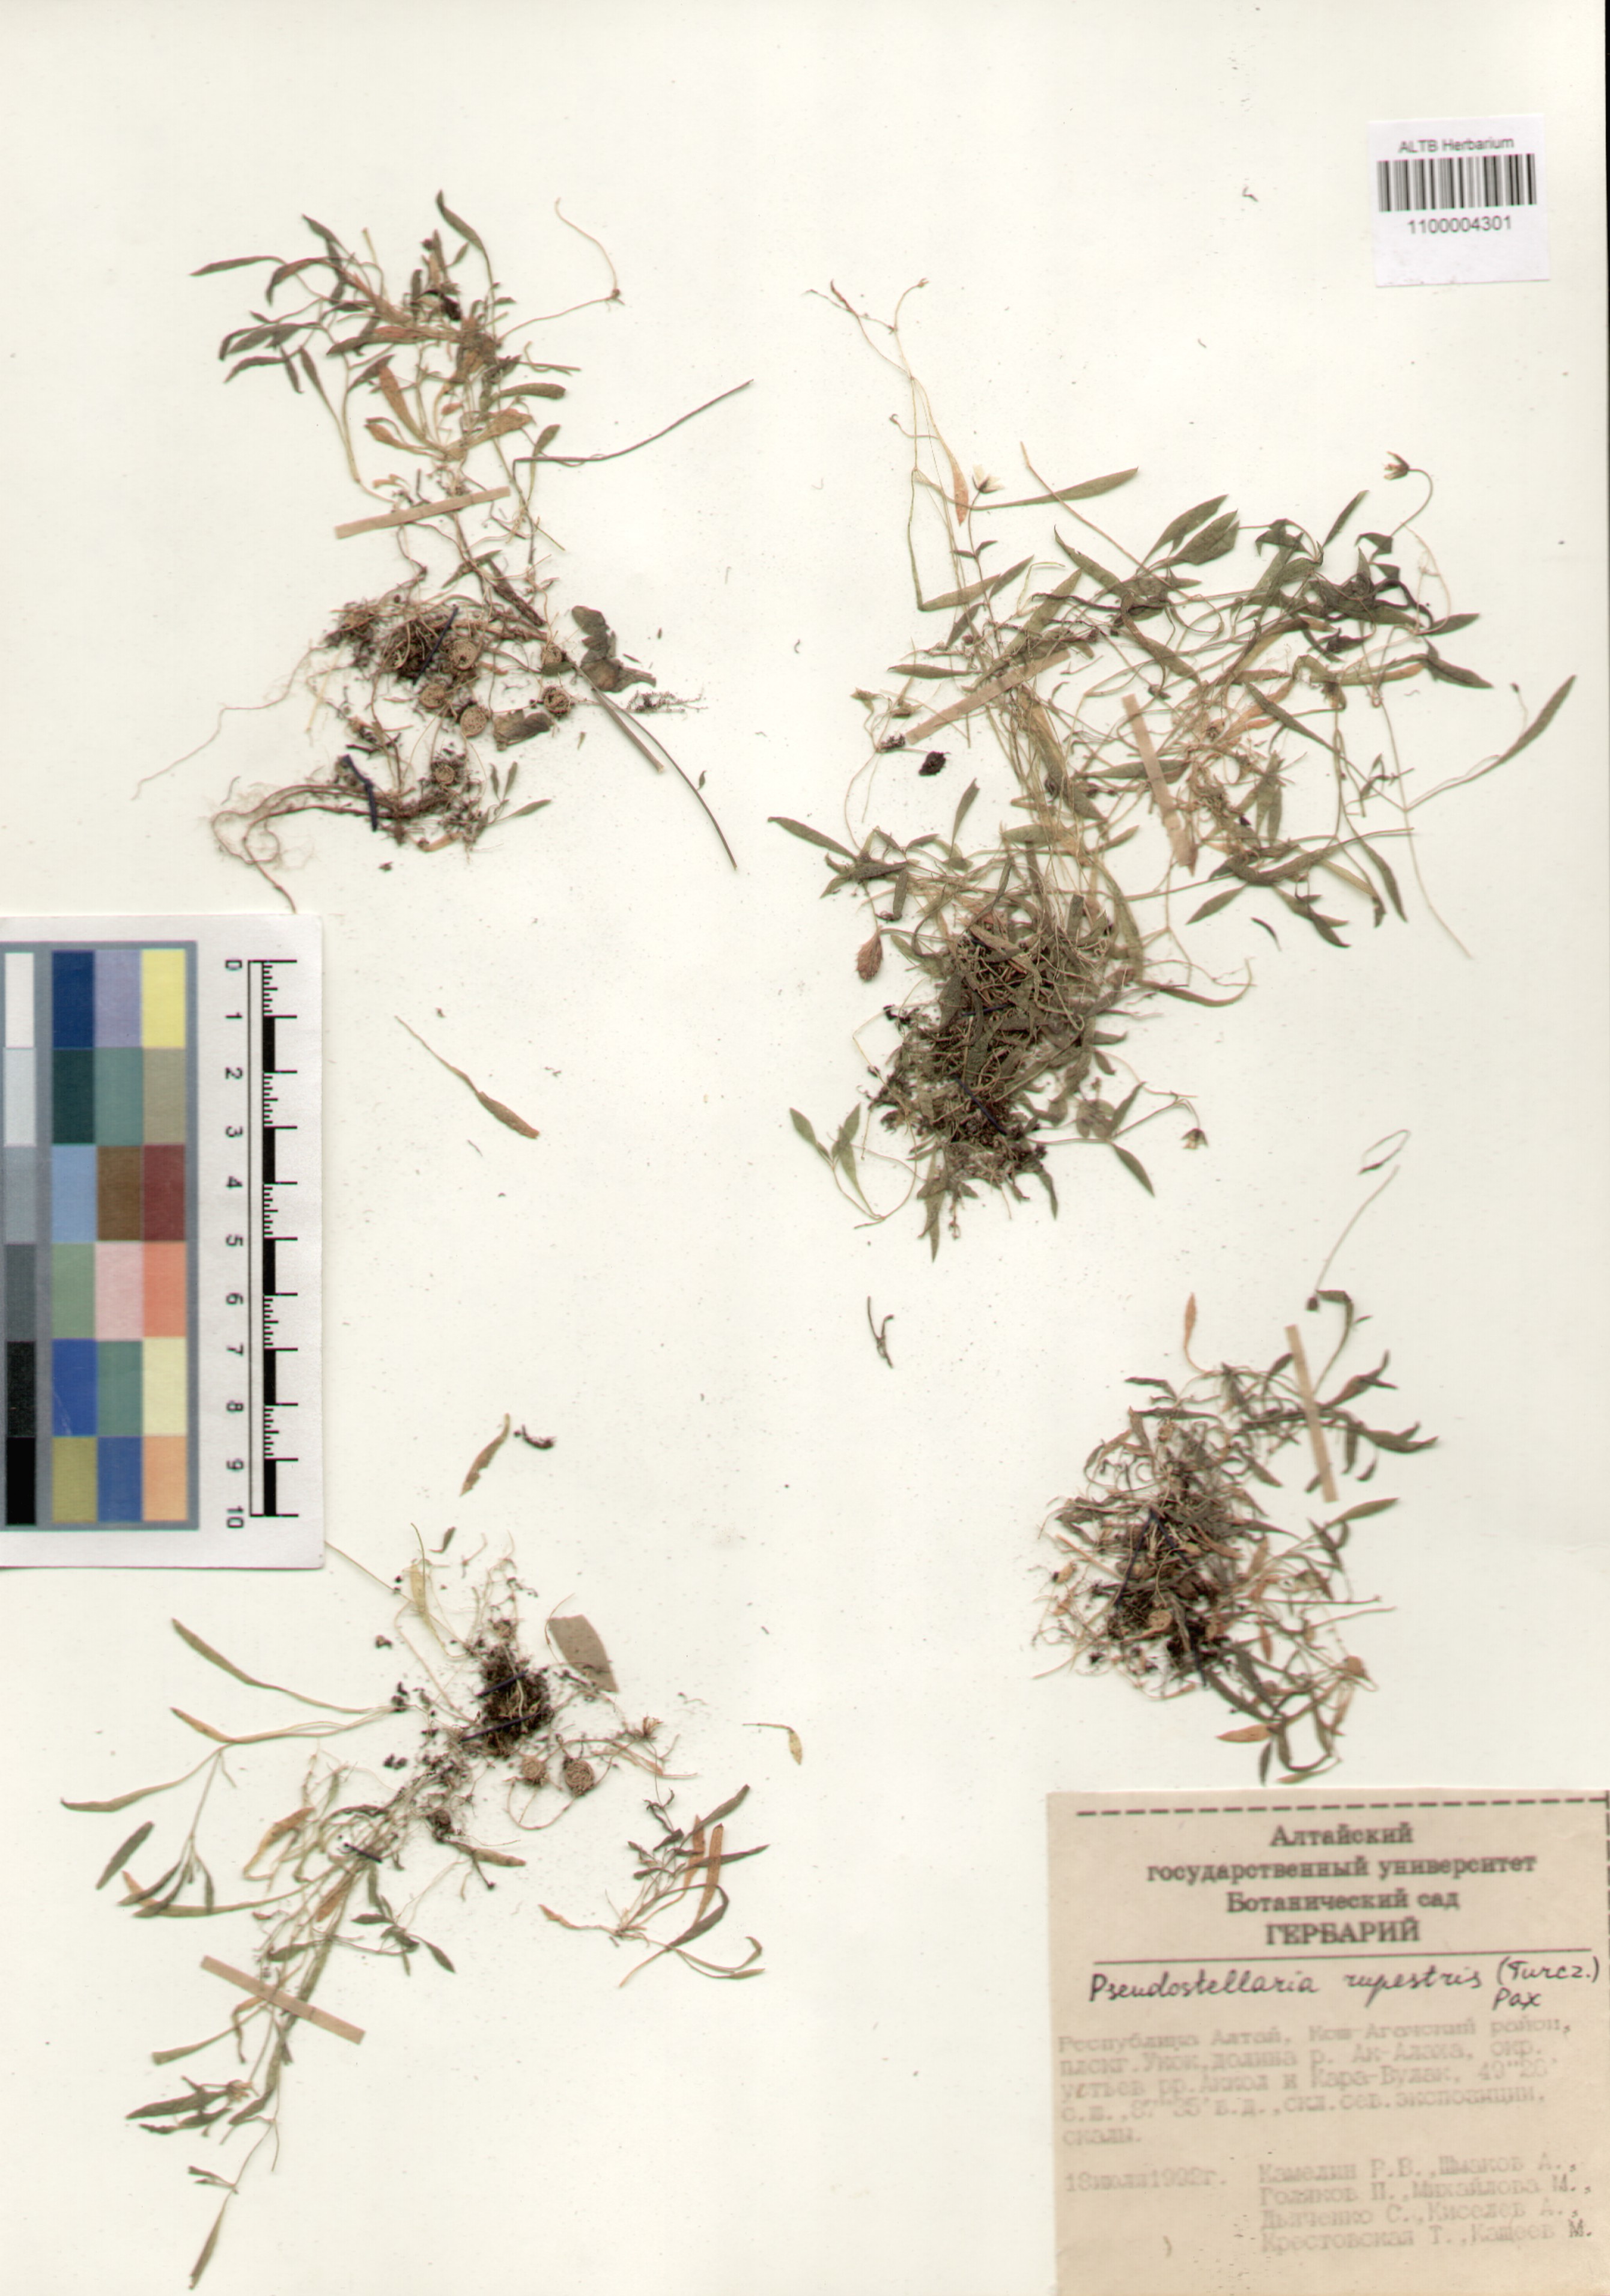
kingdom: Plantae
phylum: Tracheophyta
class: Magnoliopsida
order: Caryophyllales
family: Caryophyllaceae
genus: Pseudostellaria
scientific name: Pseudostellaria sylvatica
